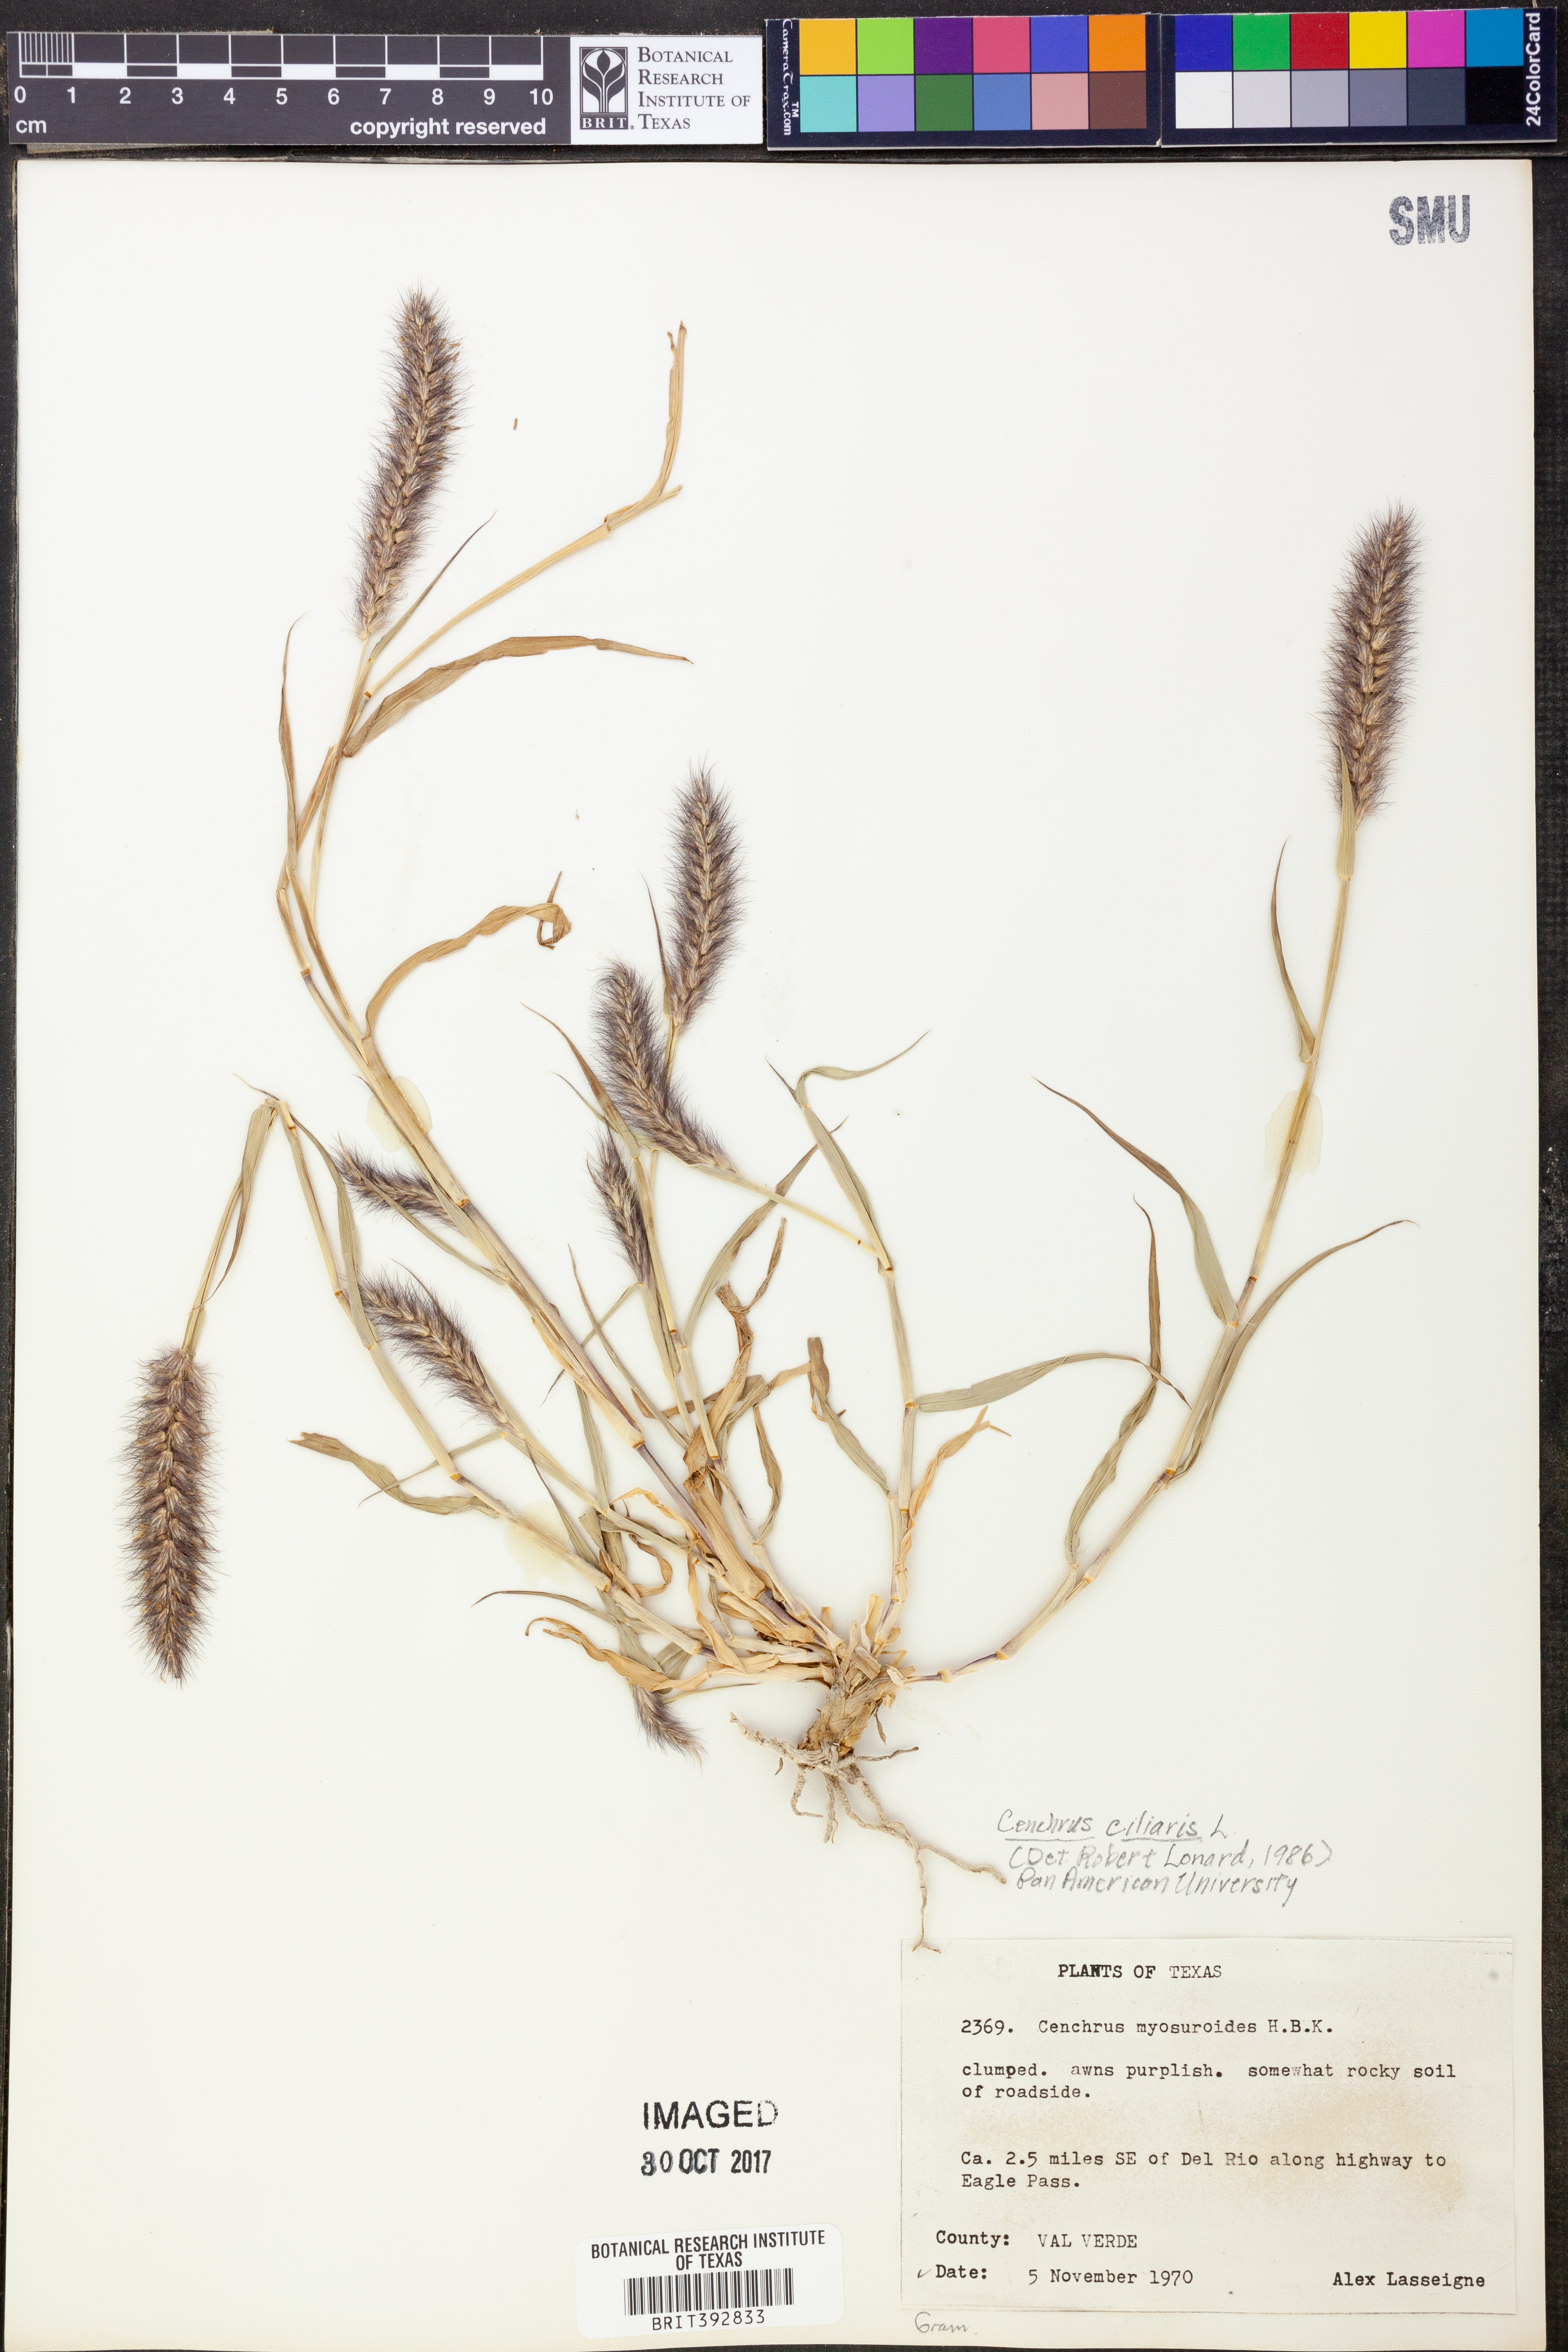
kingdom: Plantae
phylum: Tracheophyta
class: Liliopsida
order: Poales
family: Poaceae
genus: Cenchrus
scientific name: Cenchrus ciliaris
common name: Buffelgrass
